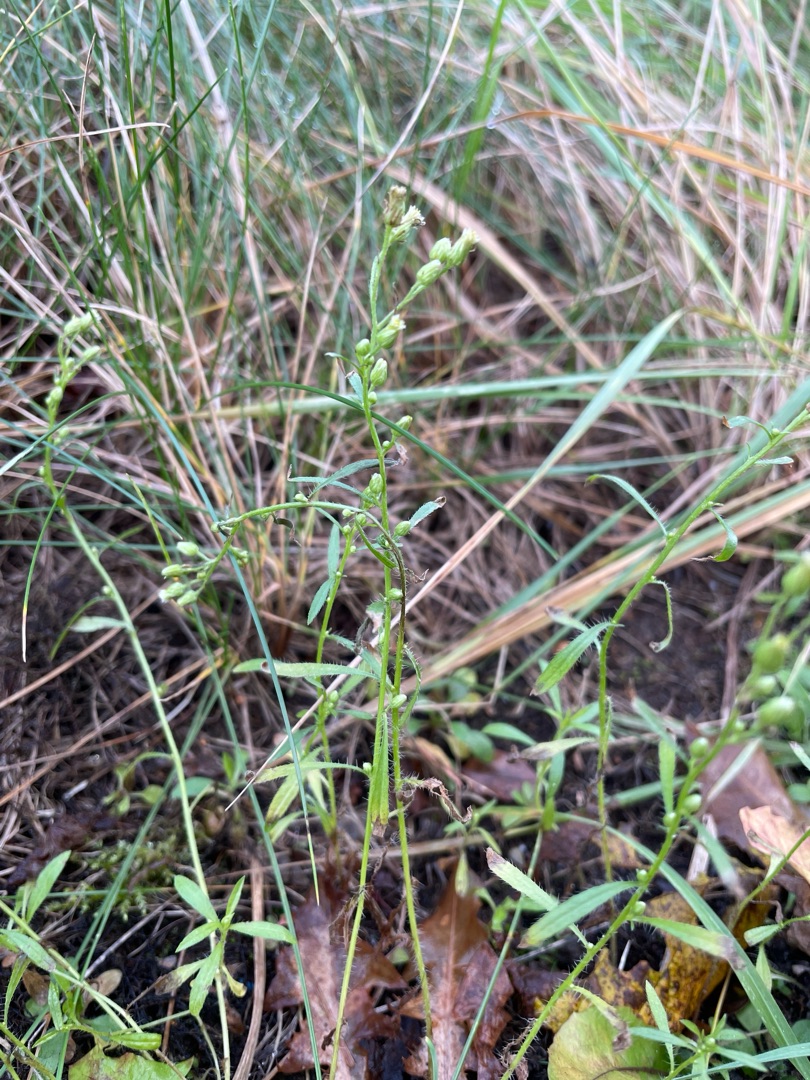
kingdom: Plantae
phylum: Tracheophyta
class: Magnoliopsida
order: Asterales
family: Asteraceae
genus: Erigeron
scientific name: Erigeron canadensis
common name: Kanadisk bakkestjerne
